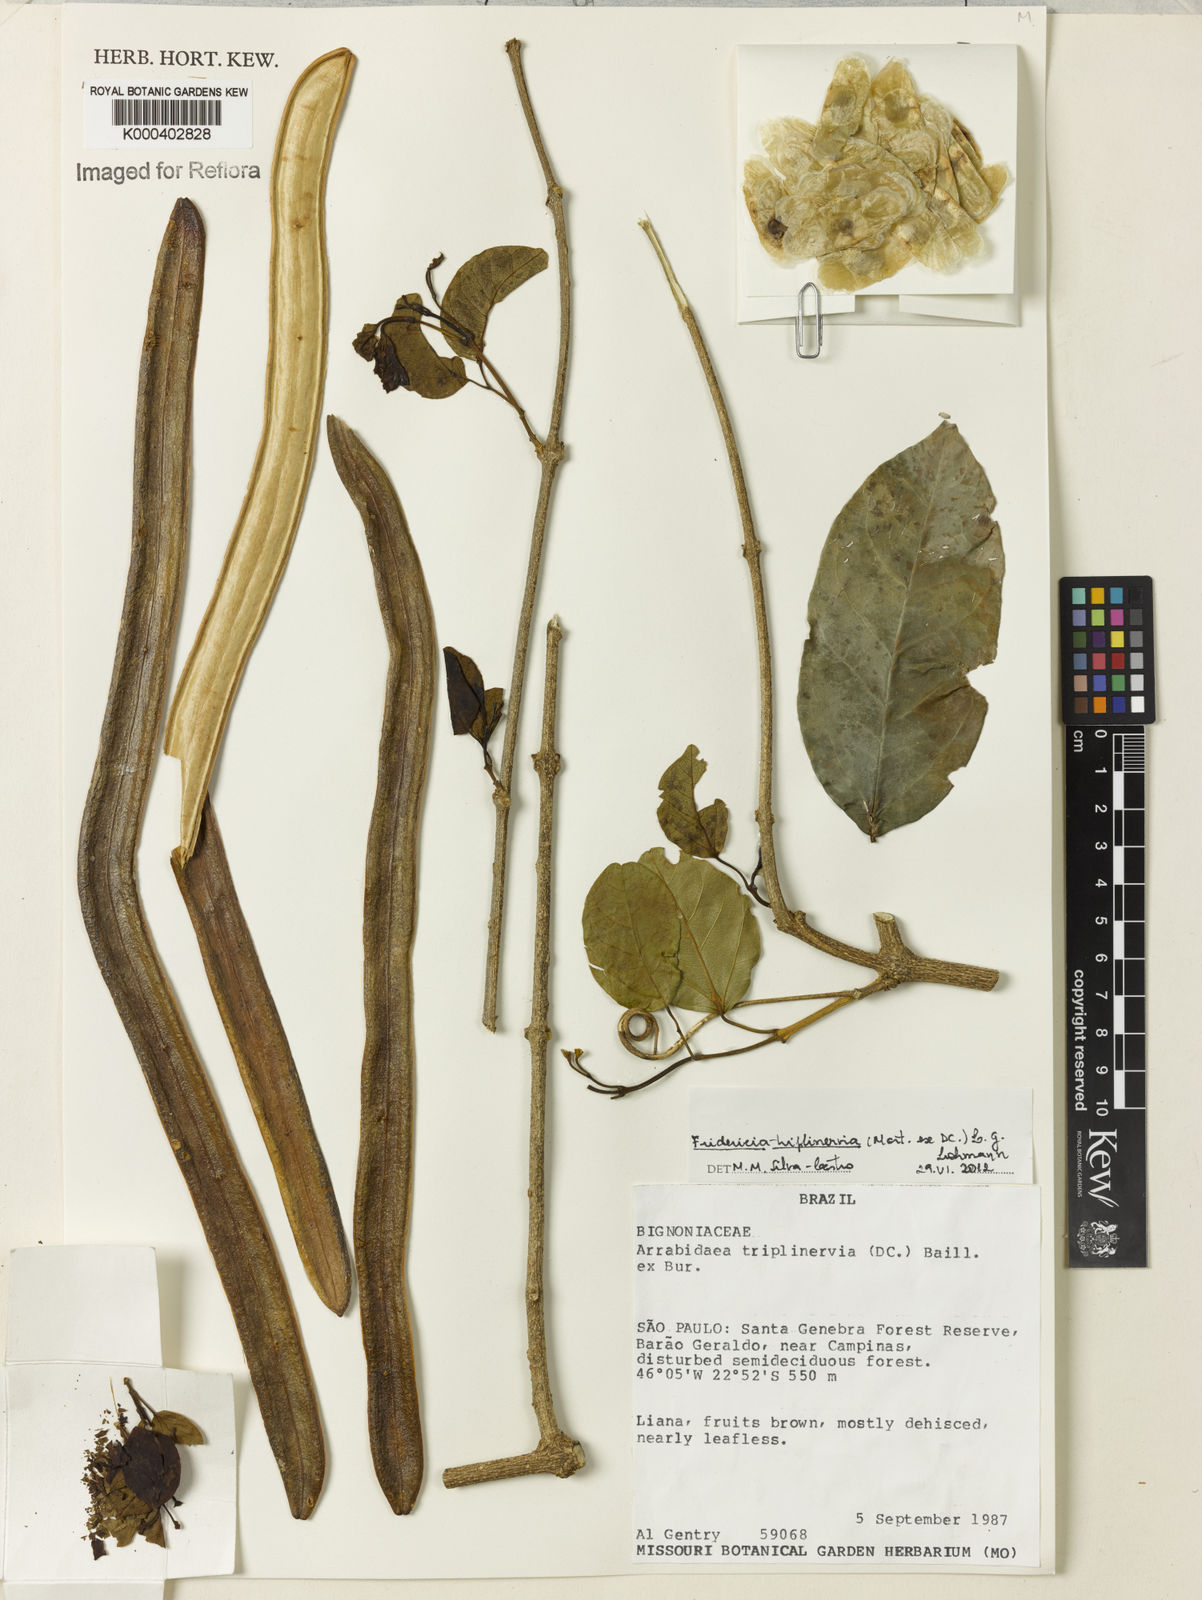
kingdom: Plantae
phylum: Tracheophyta
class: Magnoliopsida
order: Lamiales
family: Bignoniaceae
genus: Fridericia
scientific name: Fridericia triplinervia
